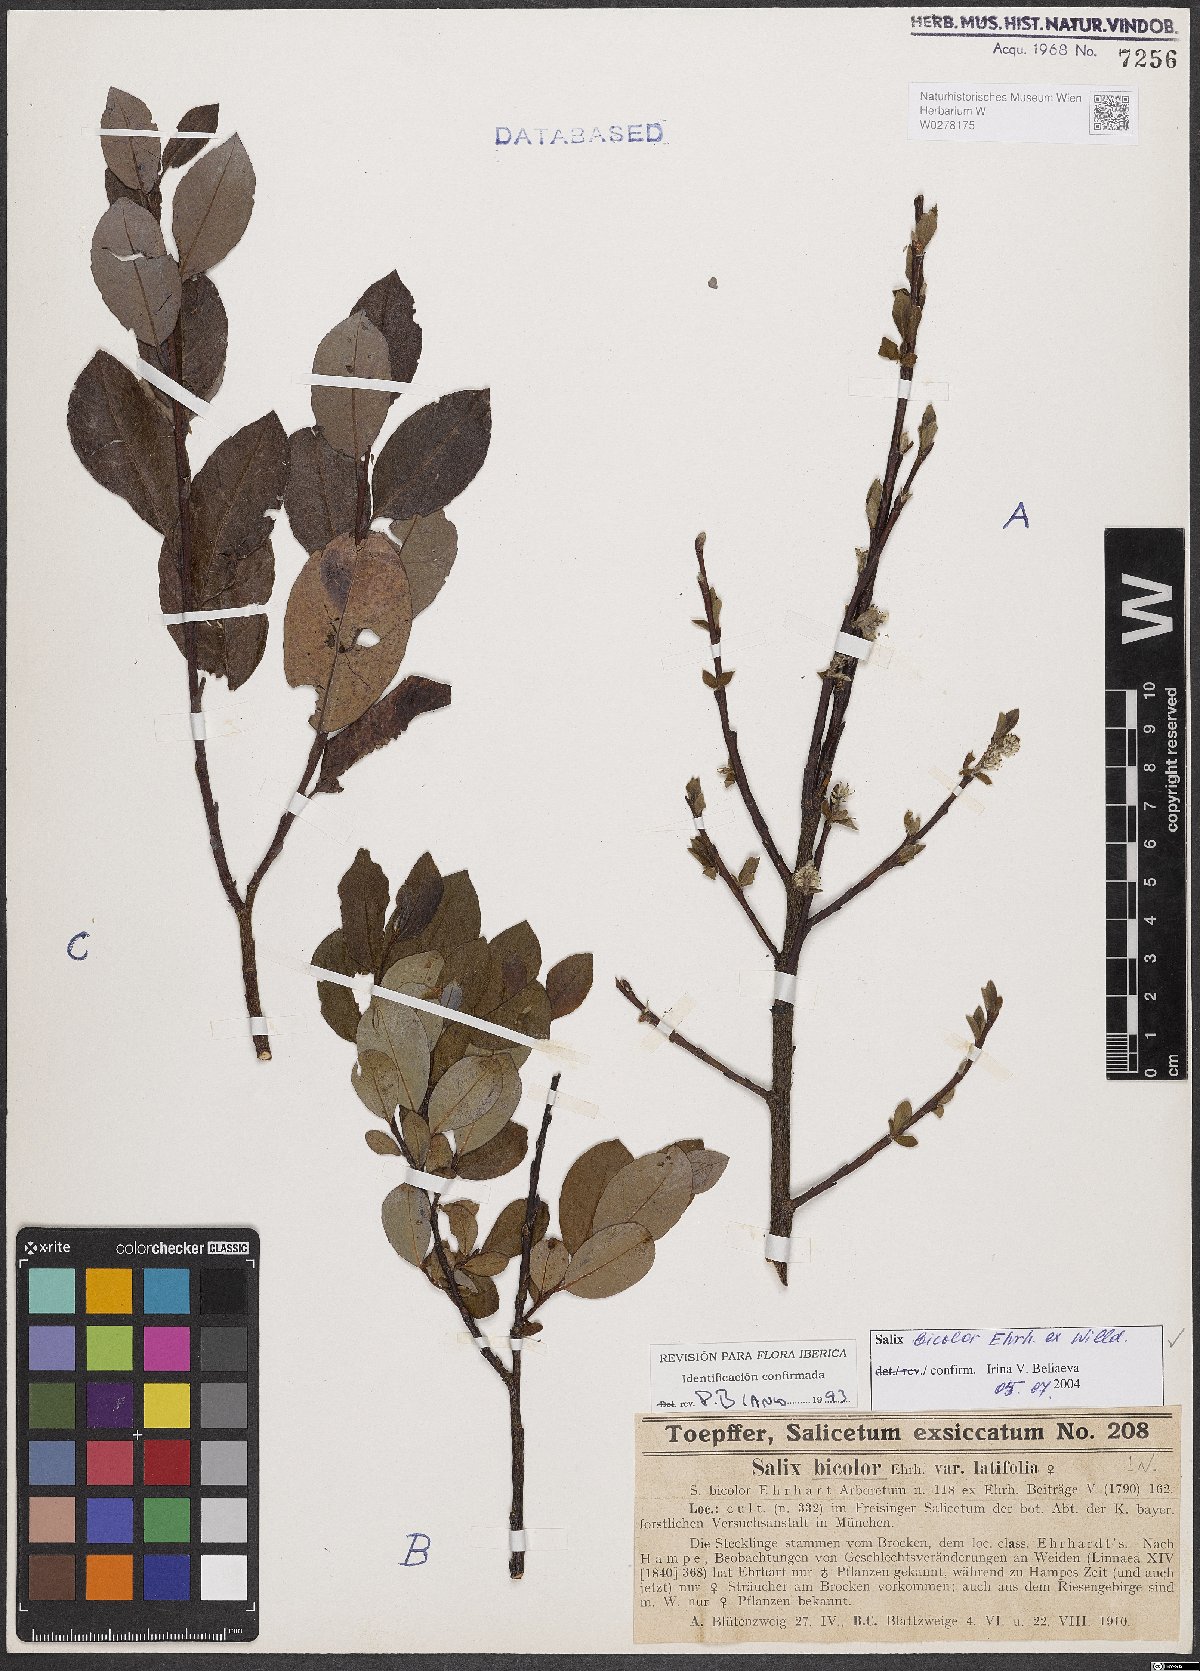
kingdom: Plantae
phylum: Tracheophyta
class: Magnoliopsida
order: Malpighiales
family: Salicaceae
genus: Salix
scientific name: Salix bicolor
